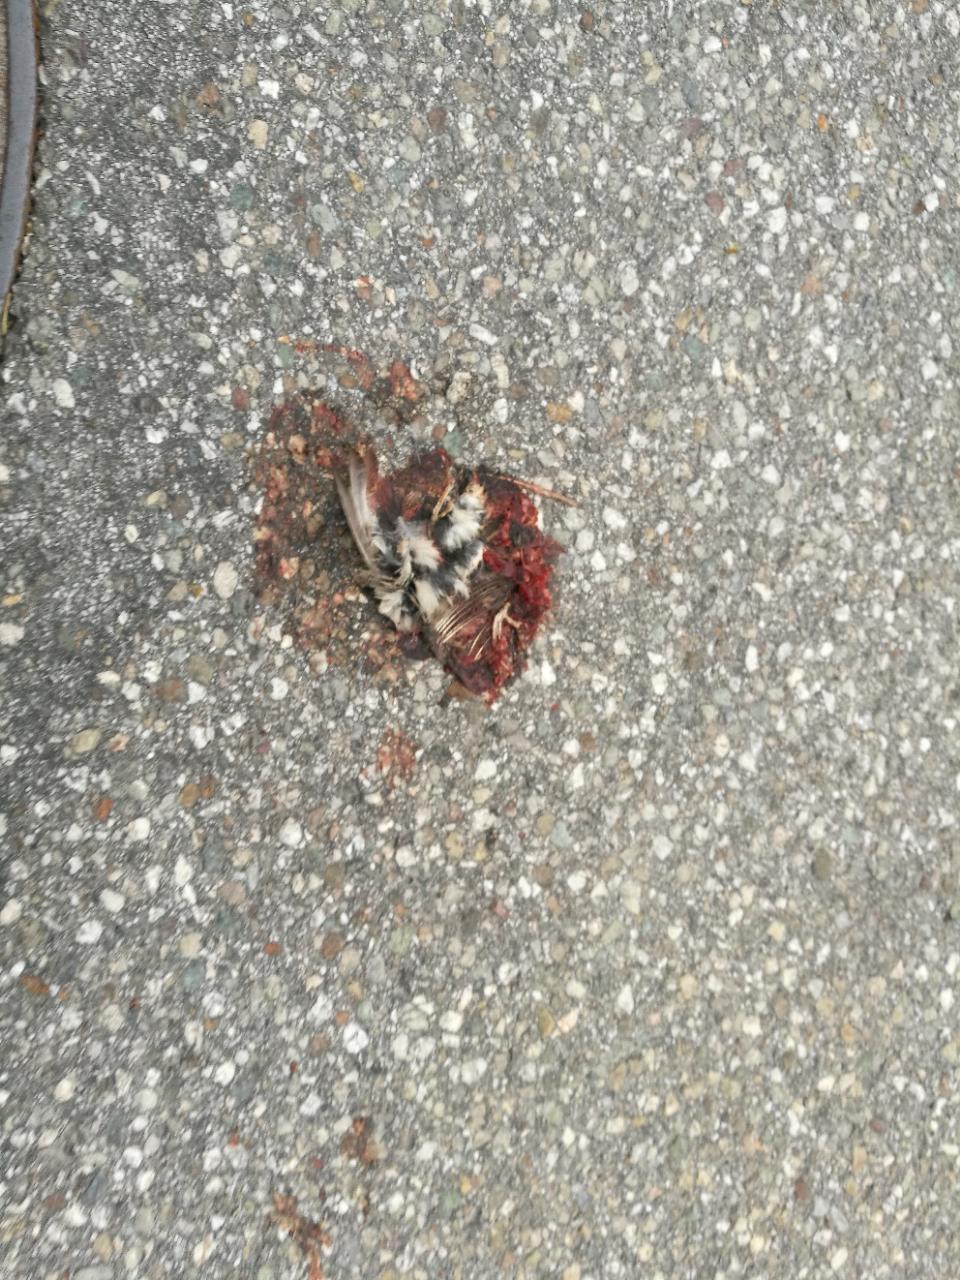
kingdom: Animalia
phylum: Chordata
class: Aves
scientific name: Aves
